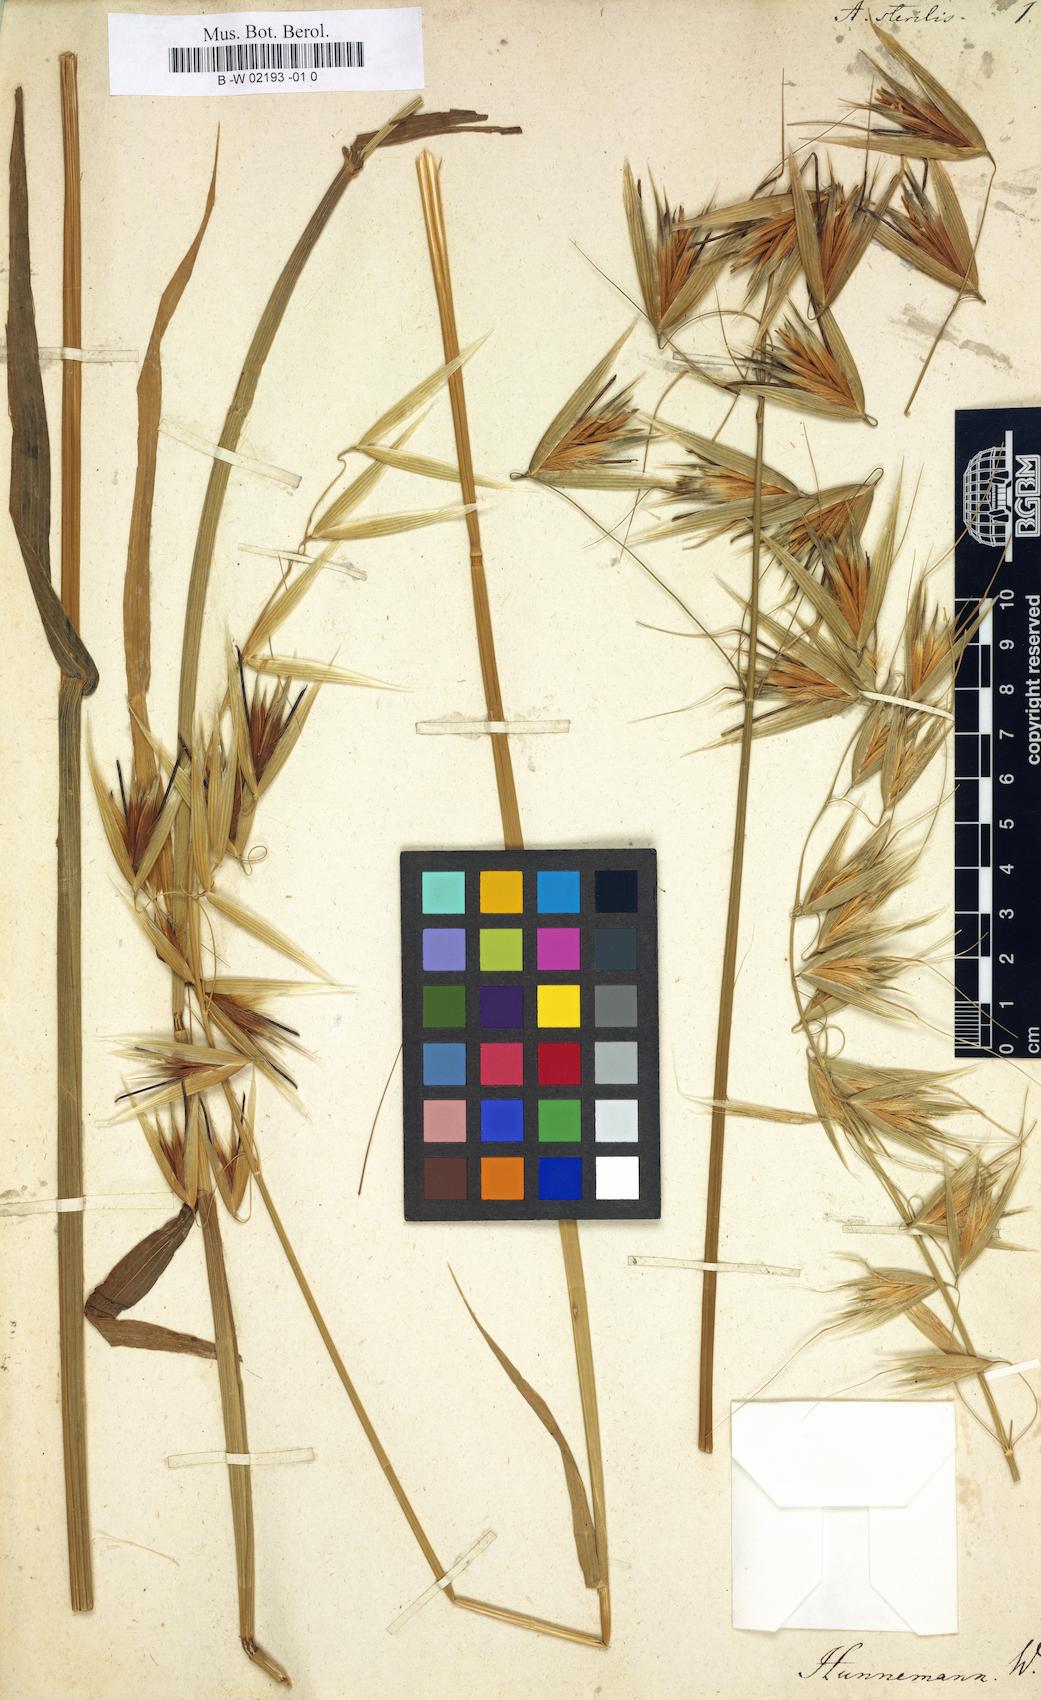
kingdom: Plantae
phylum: Tracheophyta
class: Liliopsida
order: Poales
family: Poaceae
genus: Avena
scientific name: Avena sterilis
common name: Animated oat
